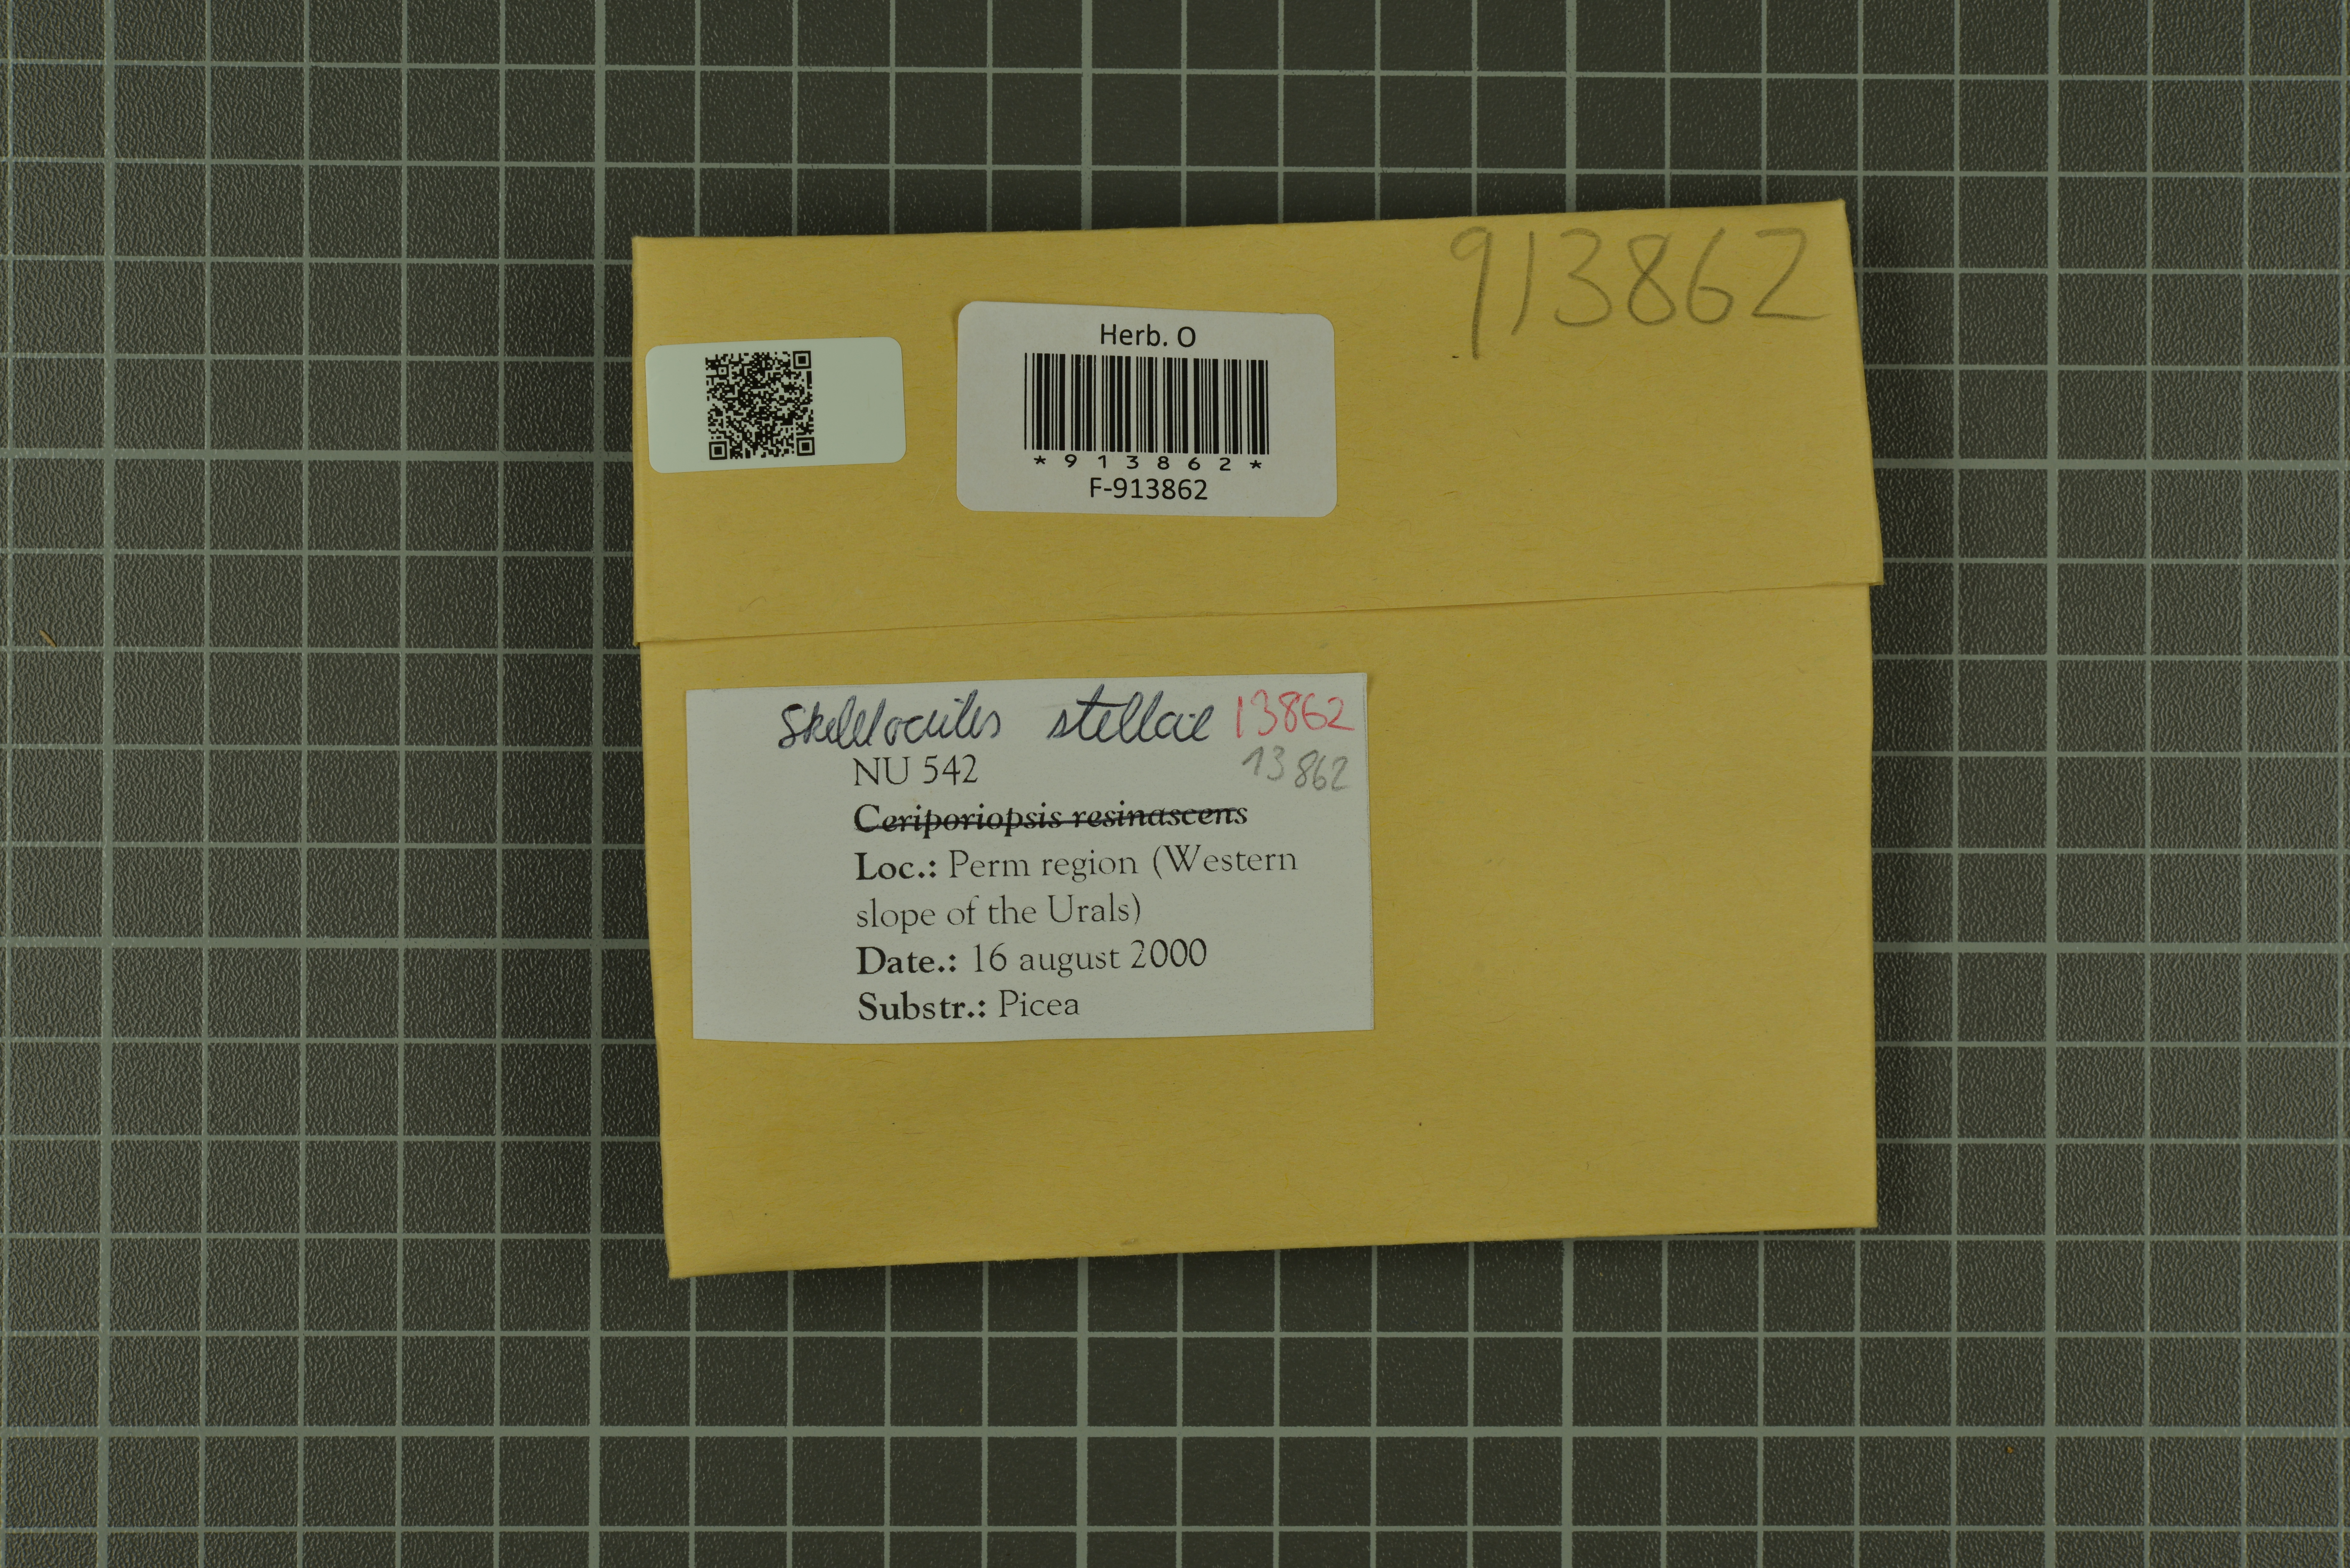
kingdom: Fungi
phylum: Basidiomycota
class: Agaricomycetes
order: Polyporales
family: Incrustoporiaceae
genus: Skeletocutis
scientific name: Skeletocutis stellae
